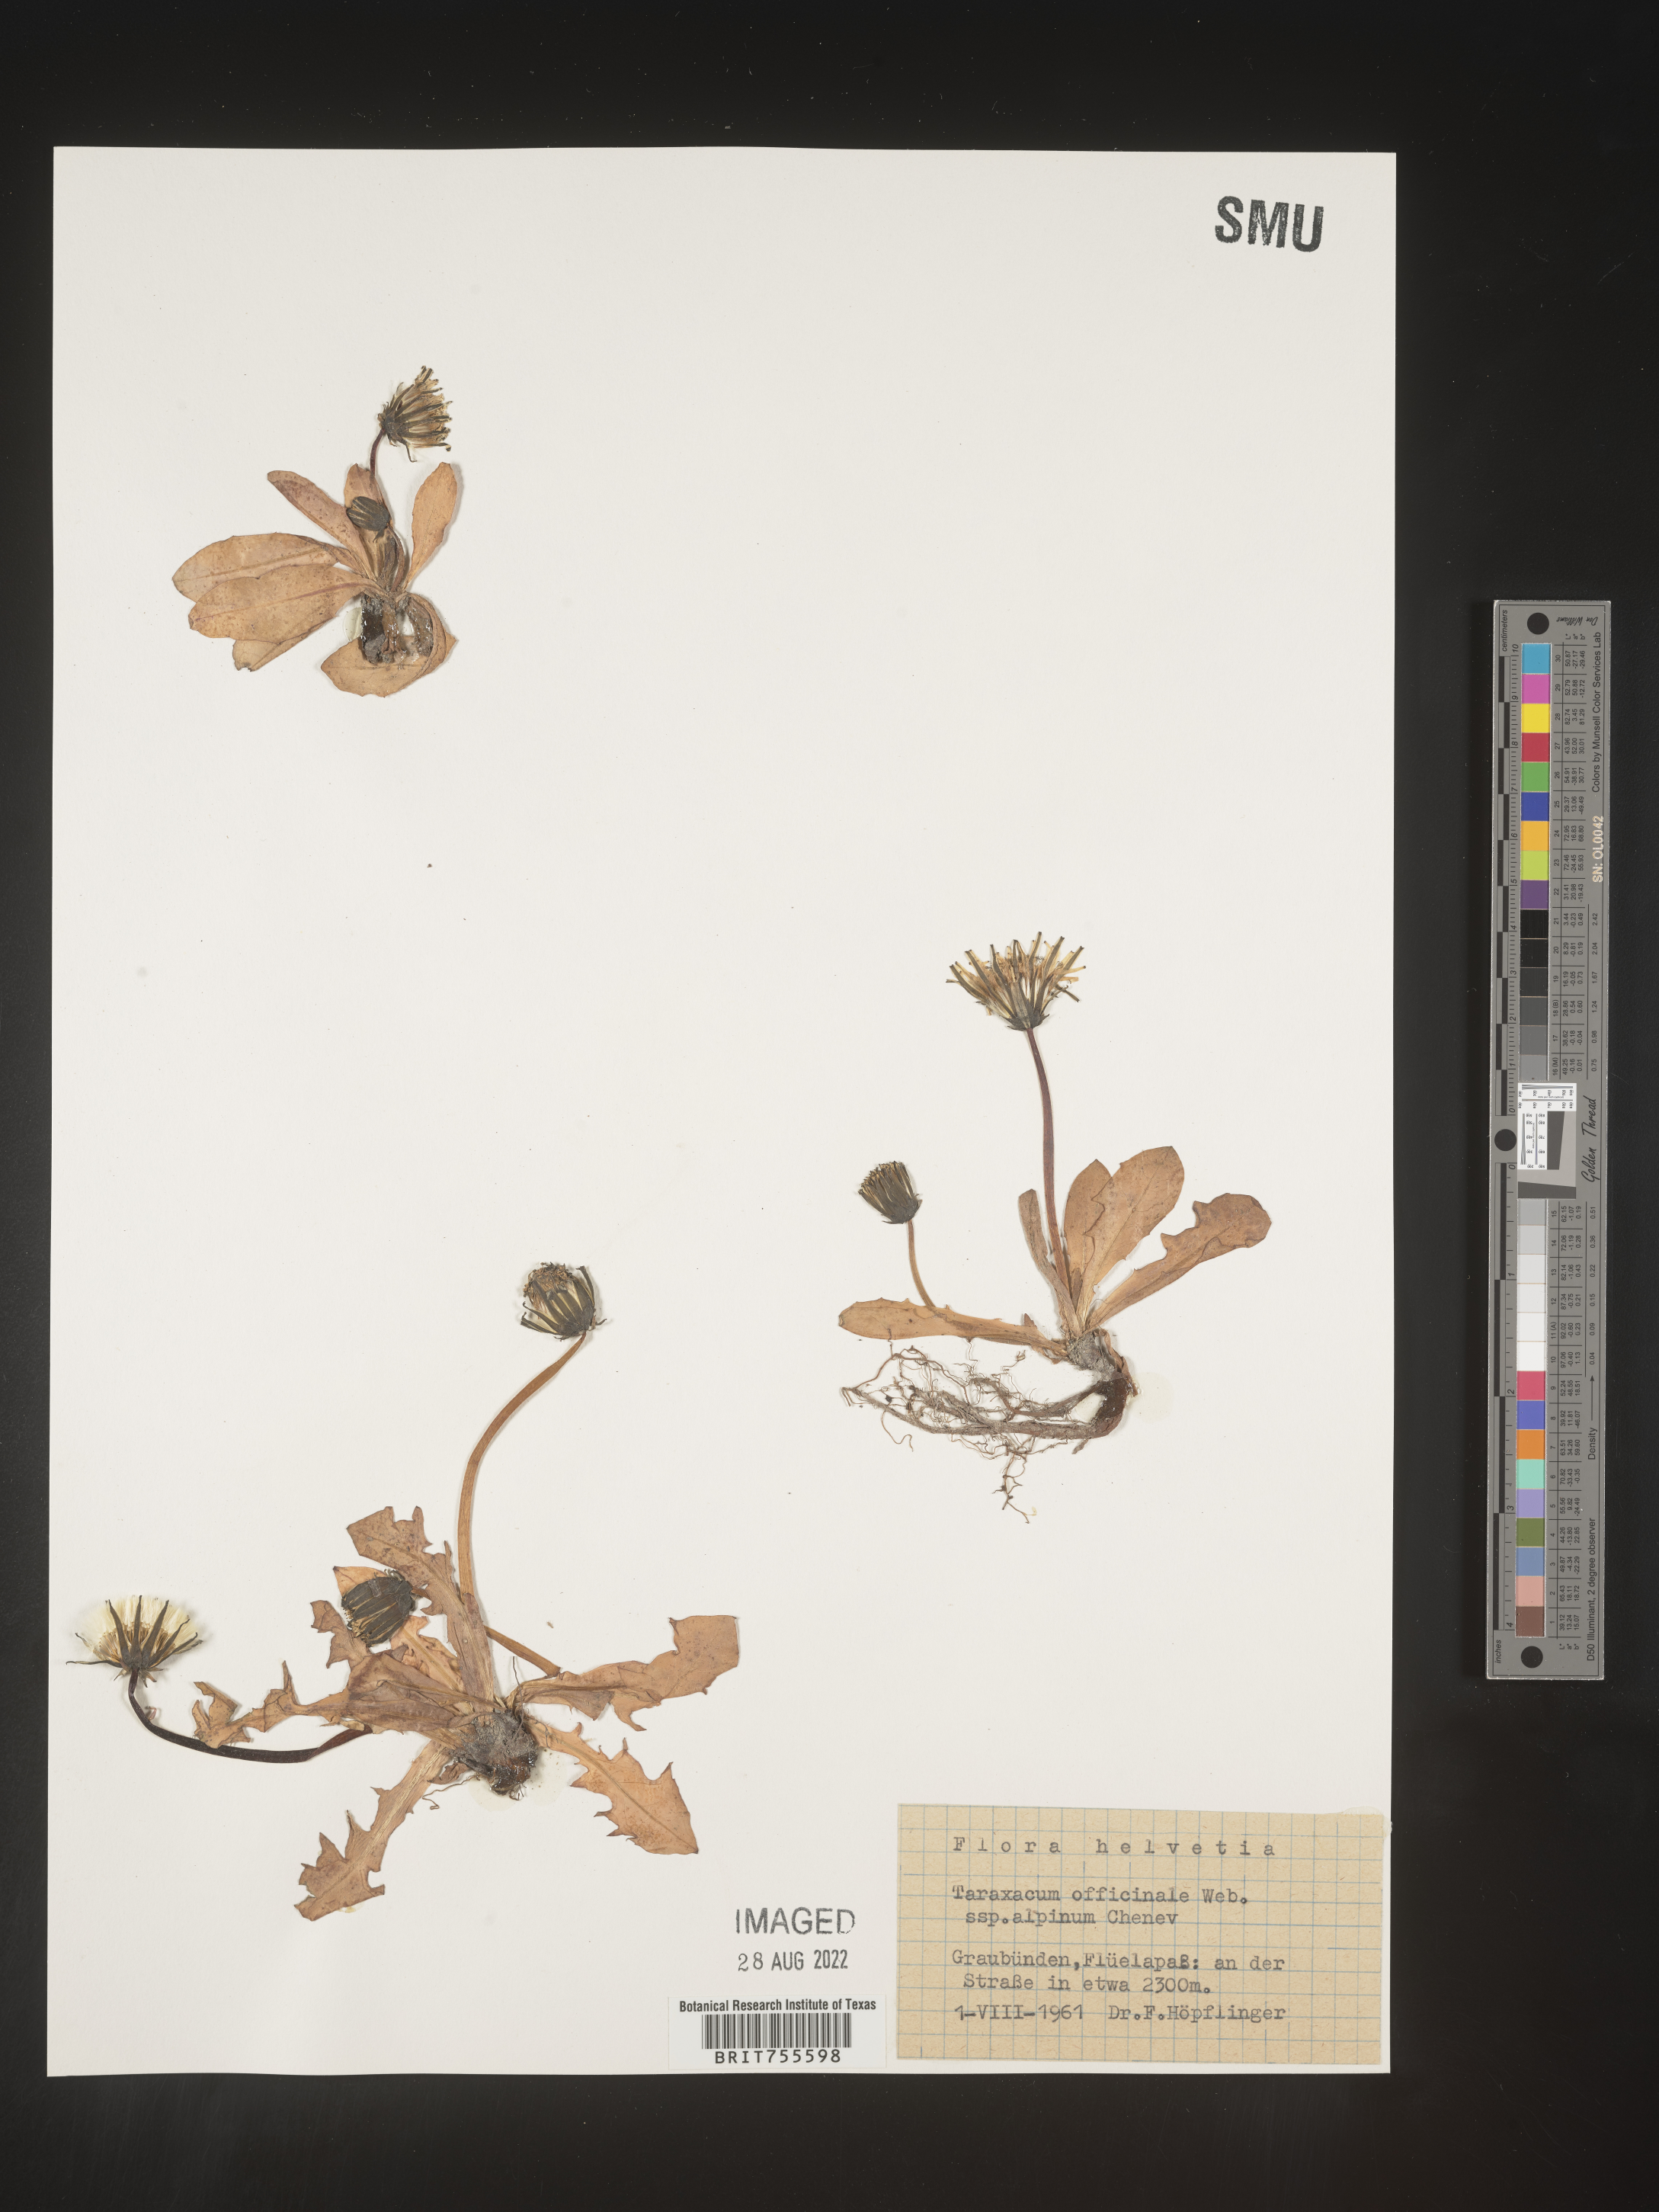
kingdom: Plantae
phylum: Tracheophyta
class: Magnoliopsida
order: Asterales
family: Asteraceae
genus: Taraxacum
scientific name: Taraxacum
